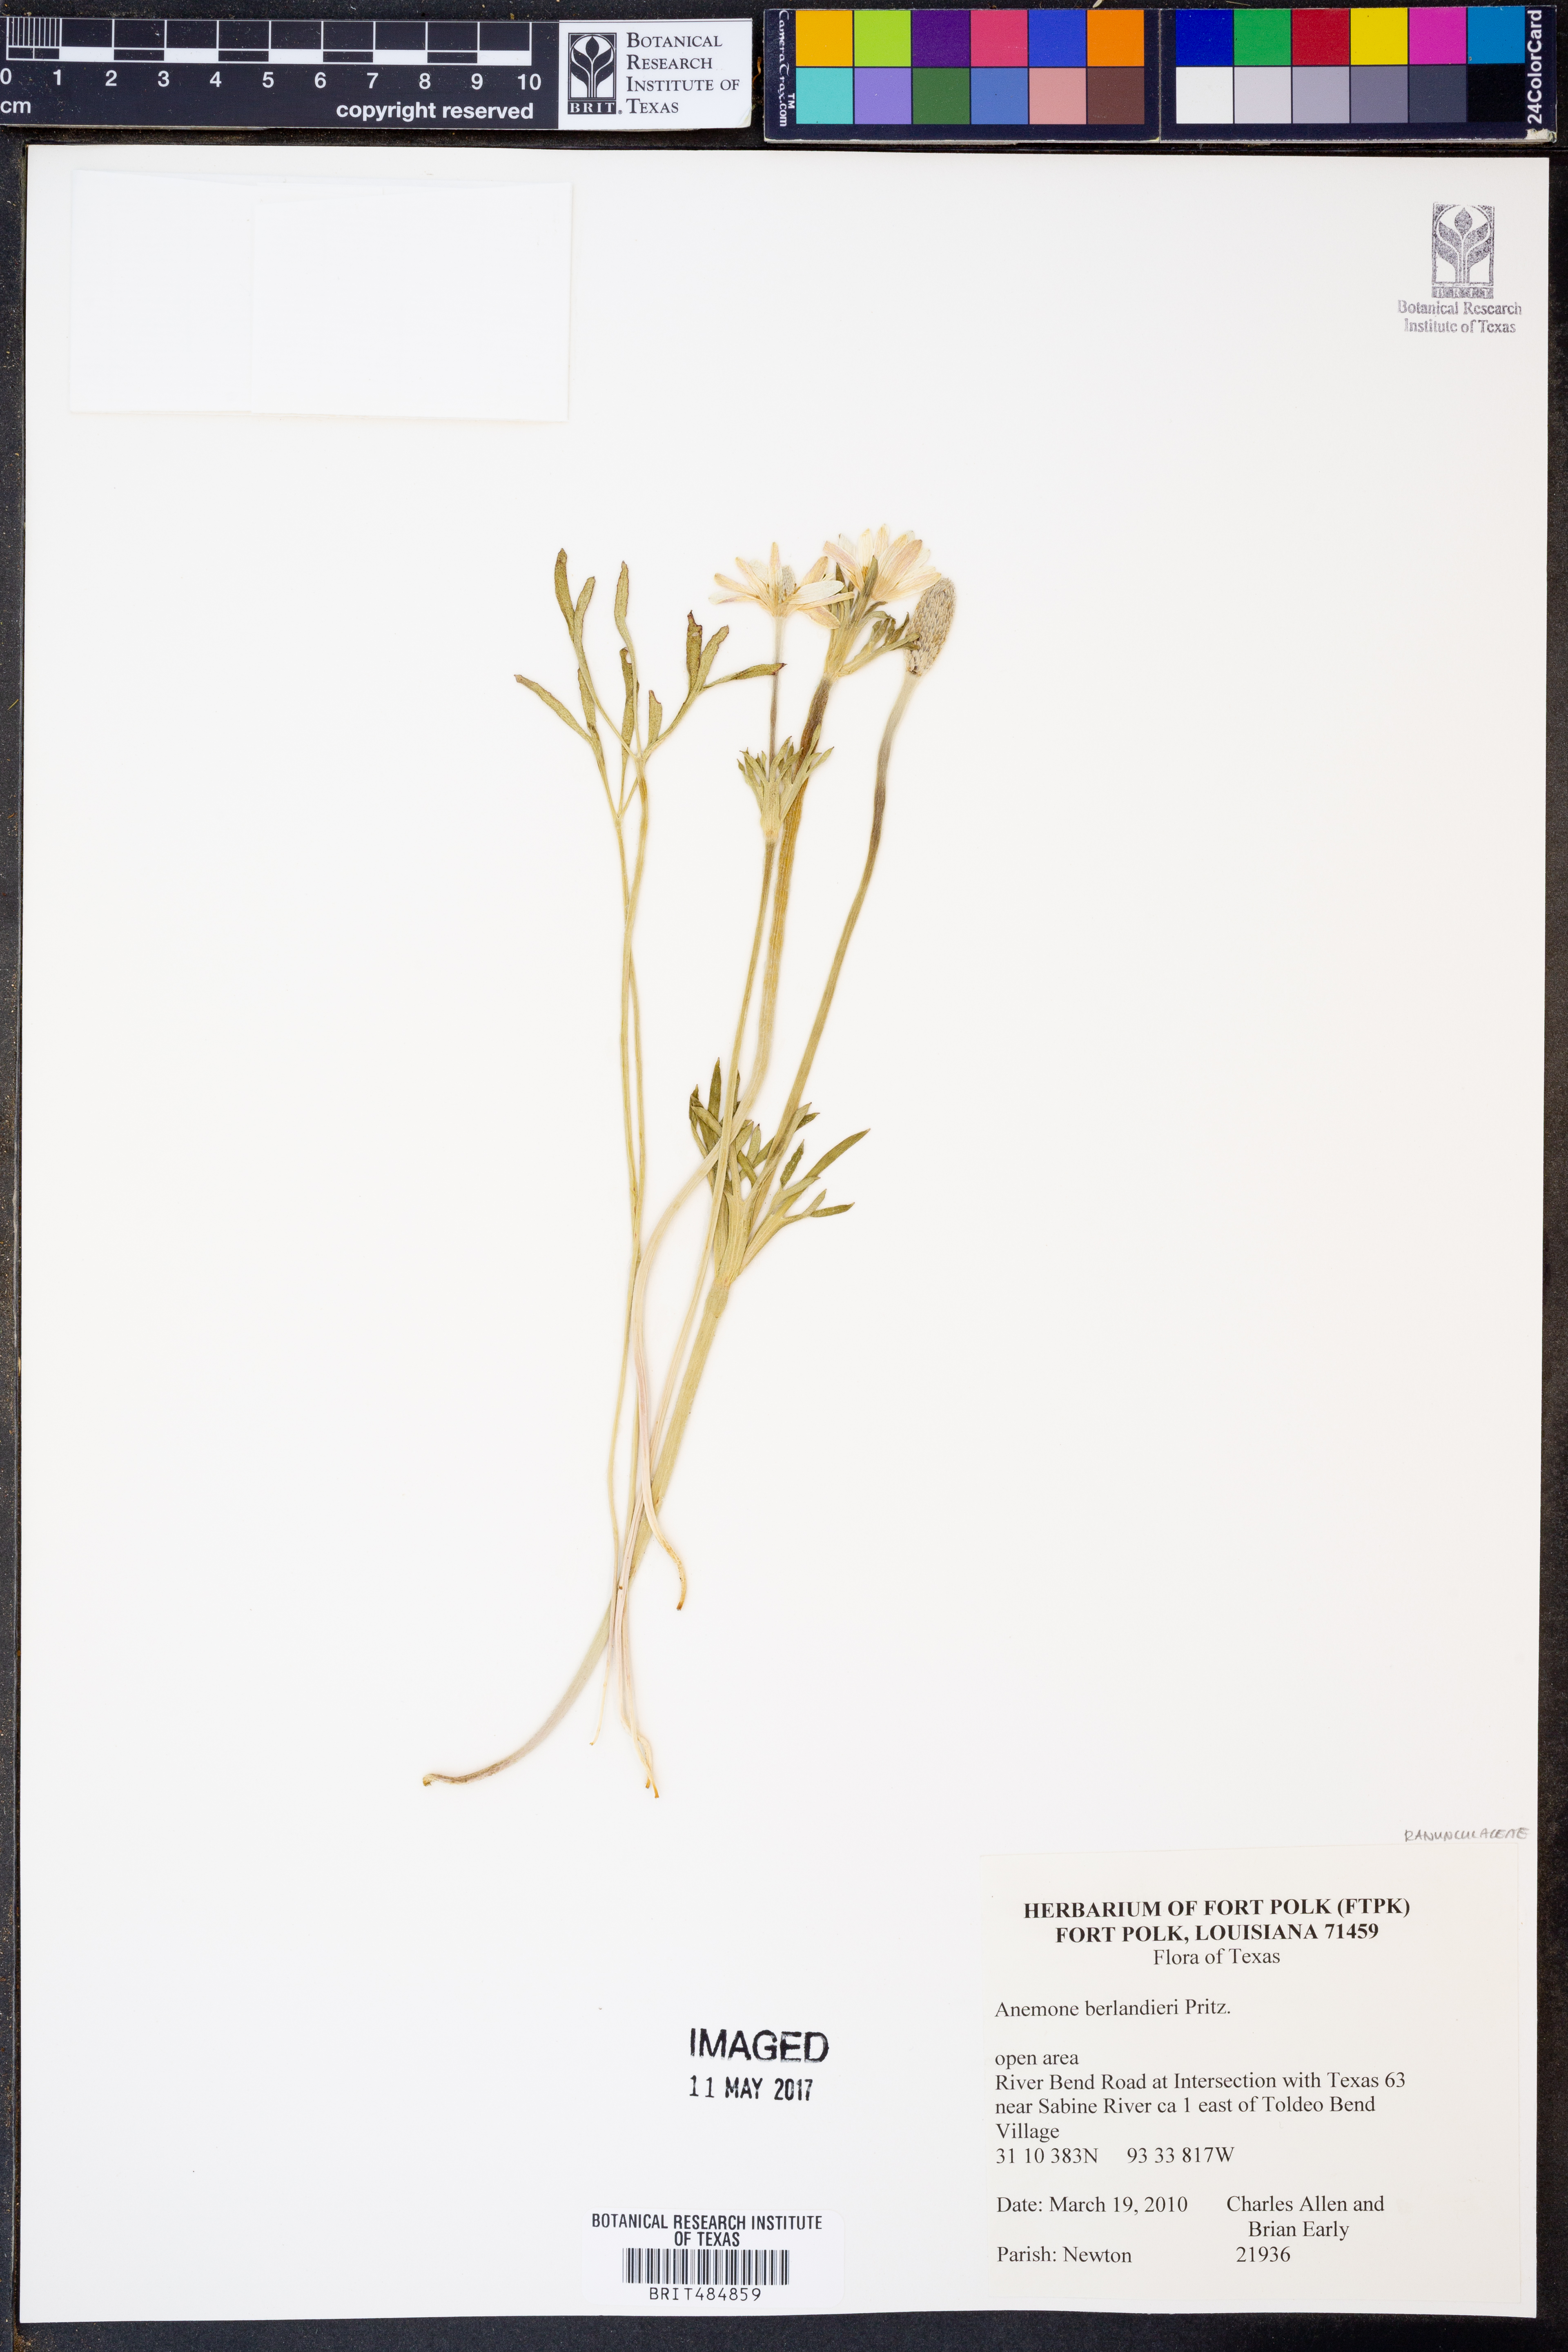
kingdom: Plantae
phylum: Tracheophyta
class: Magnoliopsida
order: Ranunculales
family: Ranunculaceae
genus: Anemone
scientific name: Anemone berlandieri
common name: Ten-petal anemone
